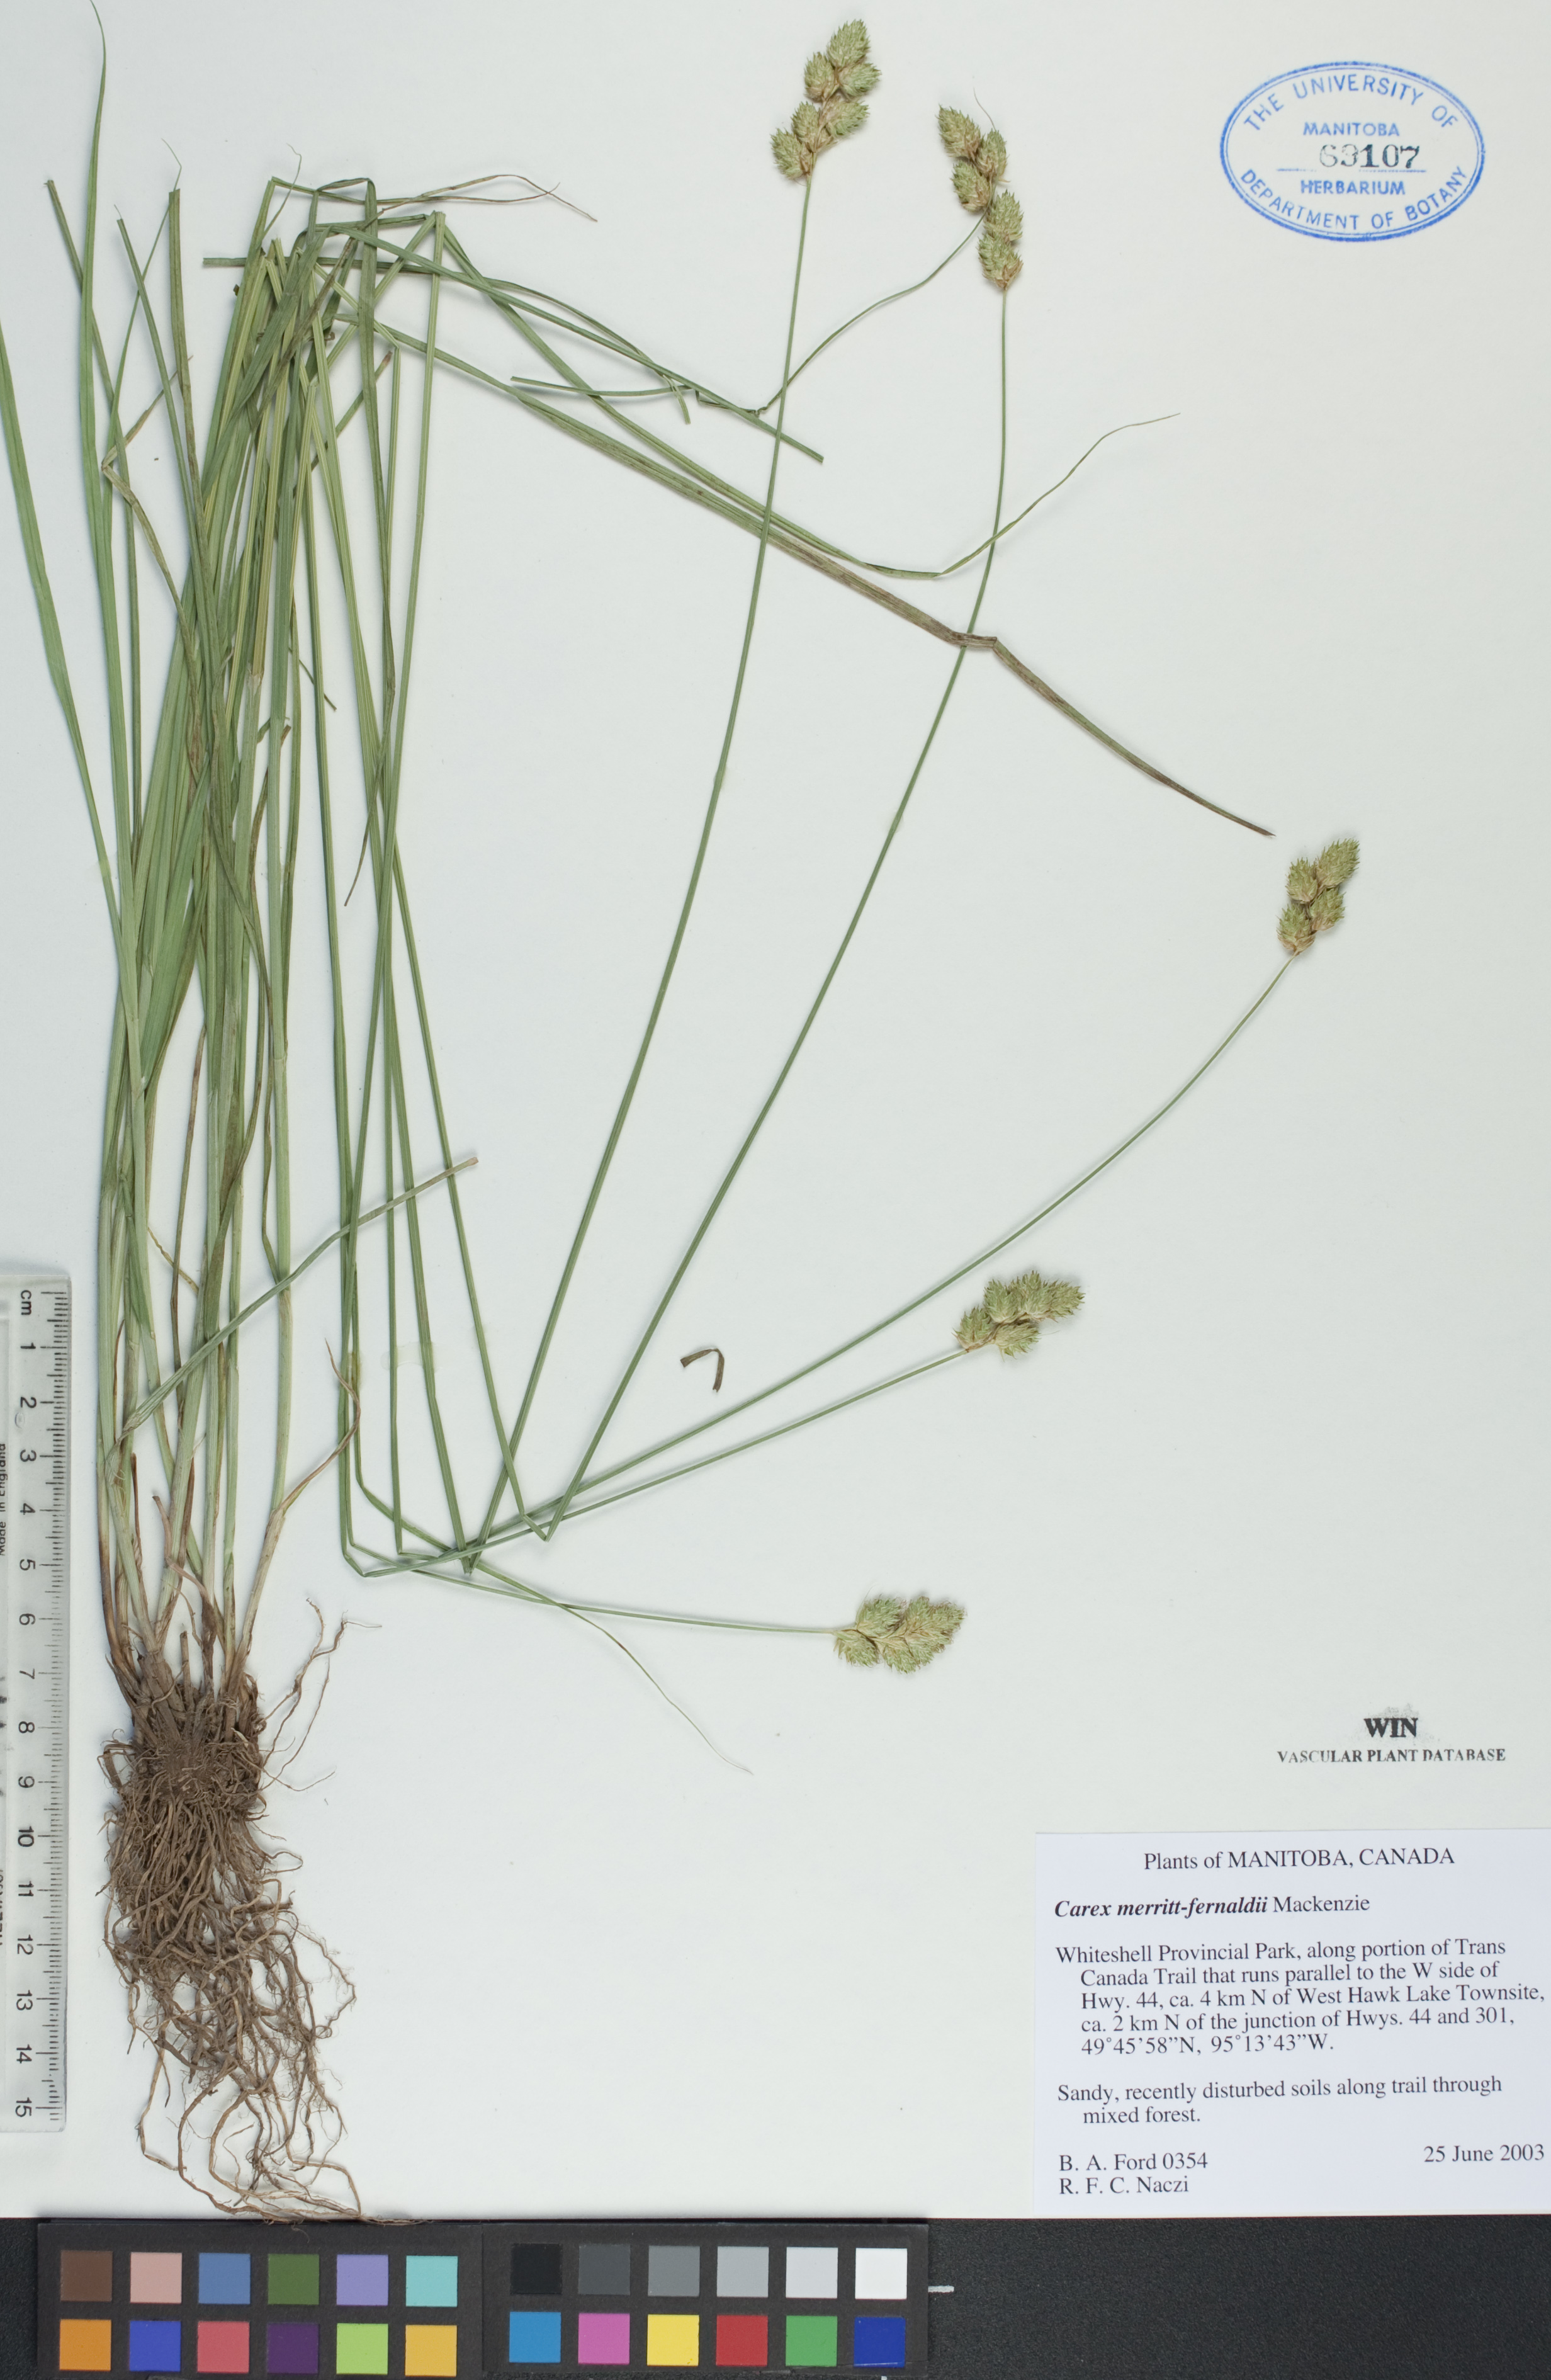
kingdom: Plantae
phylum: Tracheophyta
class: Liliopsida
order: Poales
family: Cyperaceae
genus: Carex
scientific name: Carex merritt-fernaldii
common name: Fernald's oval sedge
